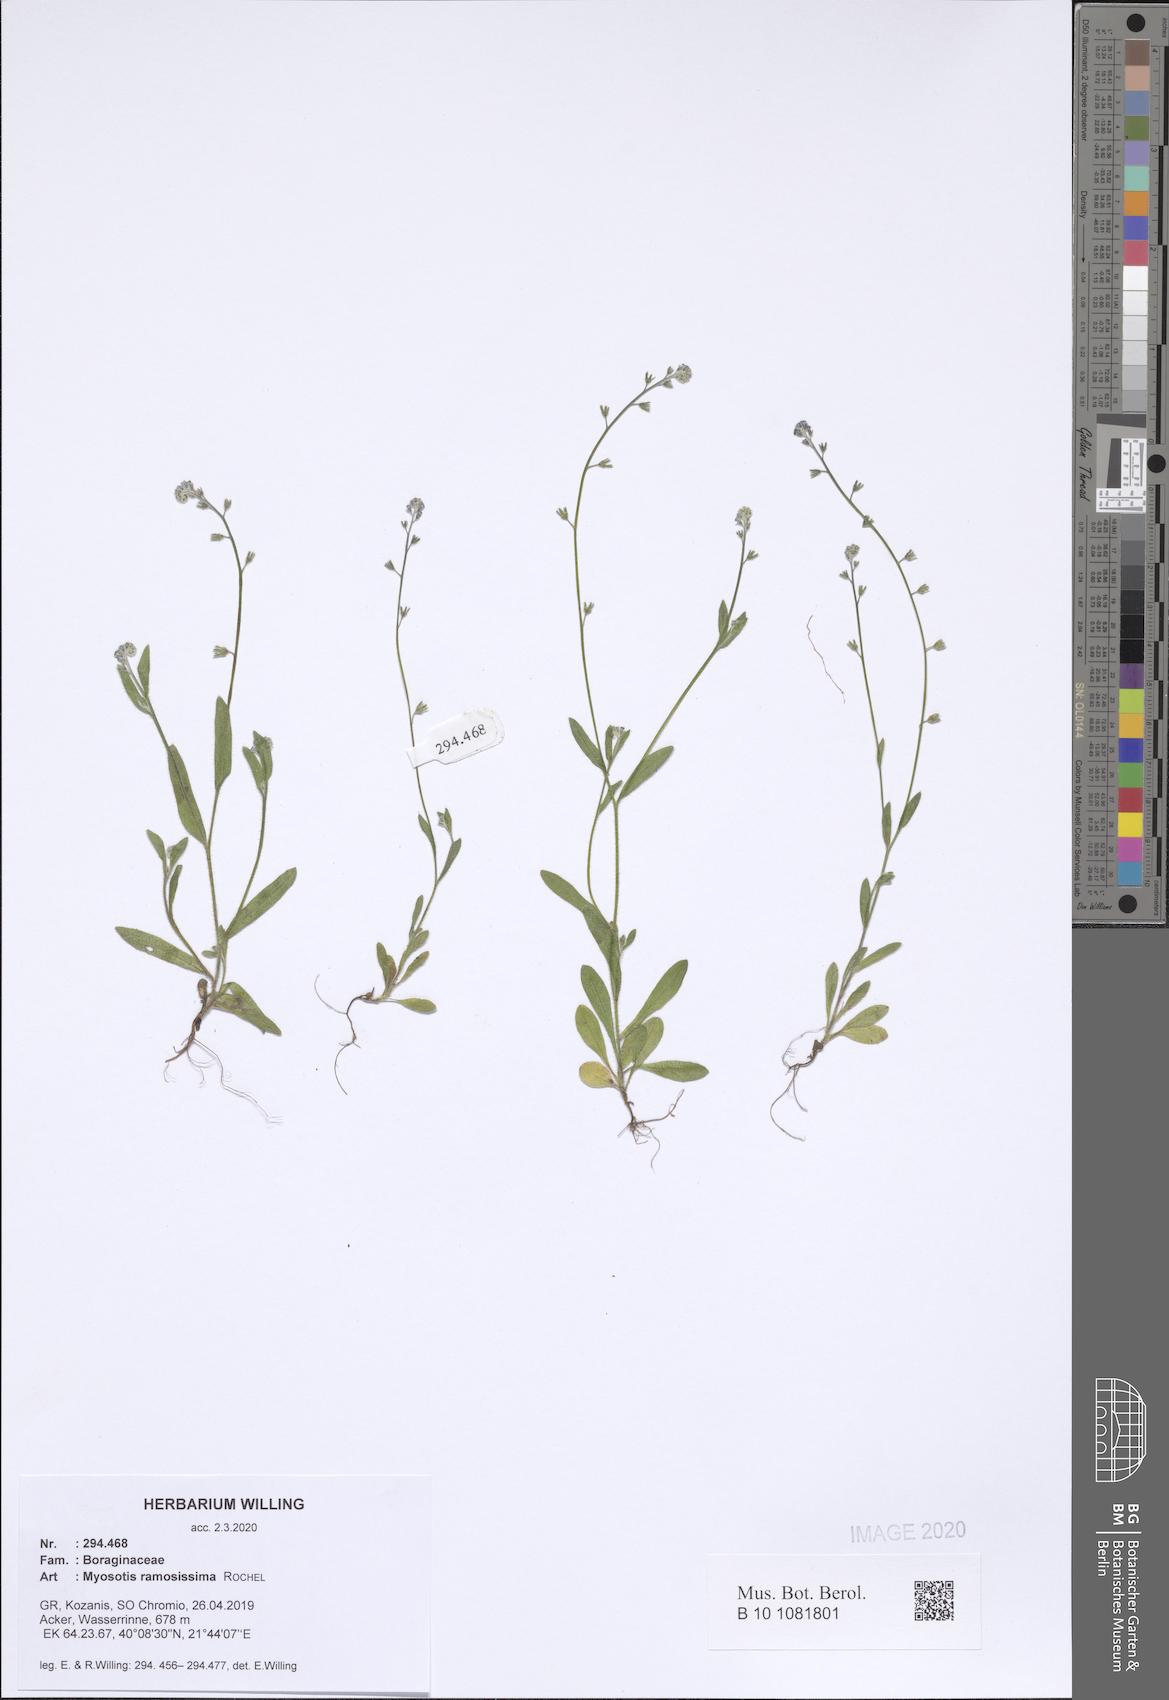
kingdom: Plantae
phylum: Tracheophyta
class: Magnoliopsida
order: Boraginales
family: Boraginaceae
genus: Myosotis
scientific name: Myosotis ramosissima
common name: Early forget-me-not
